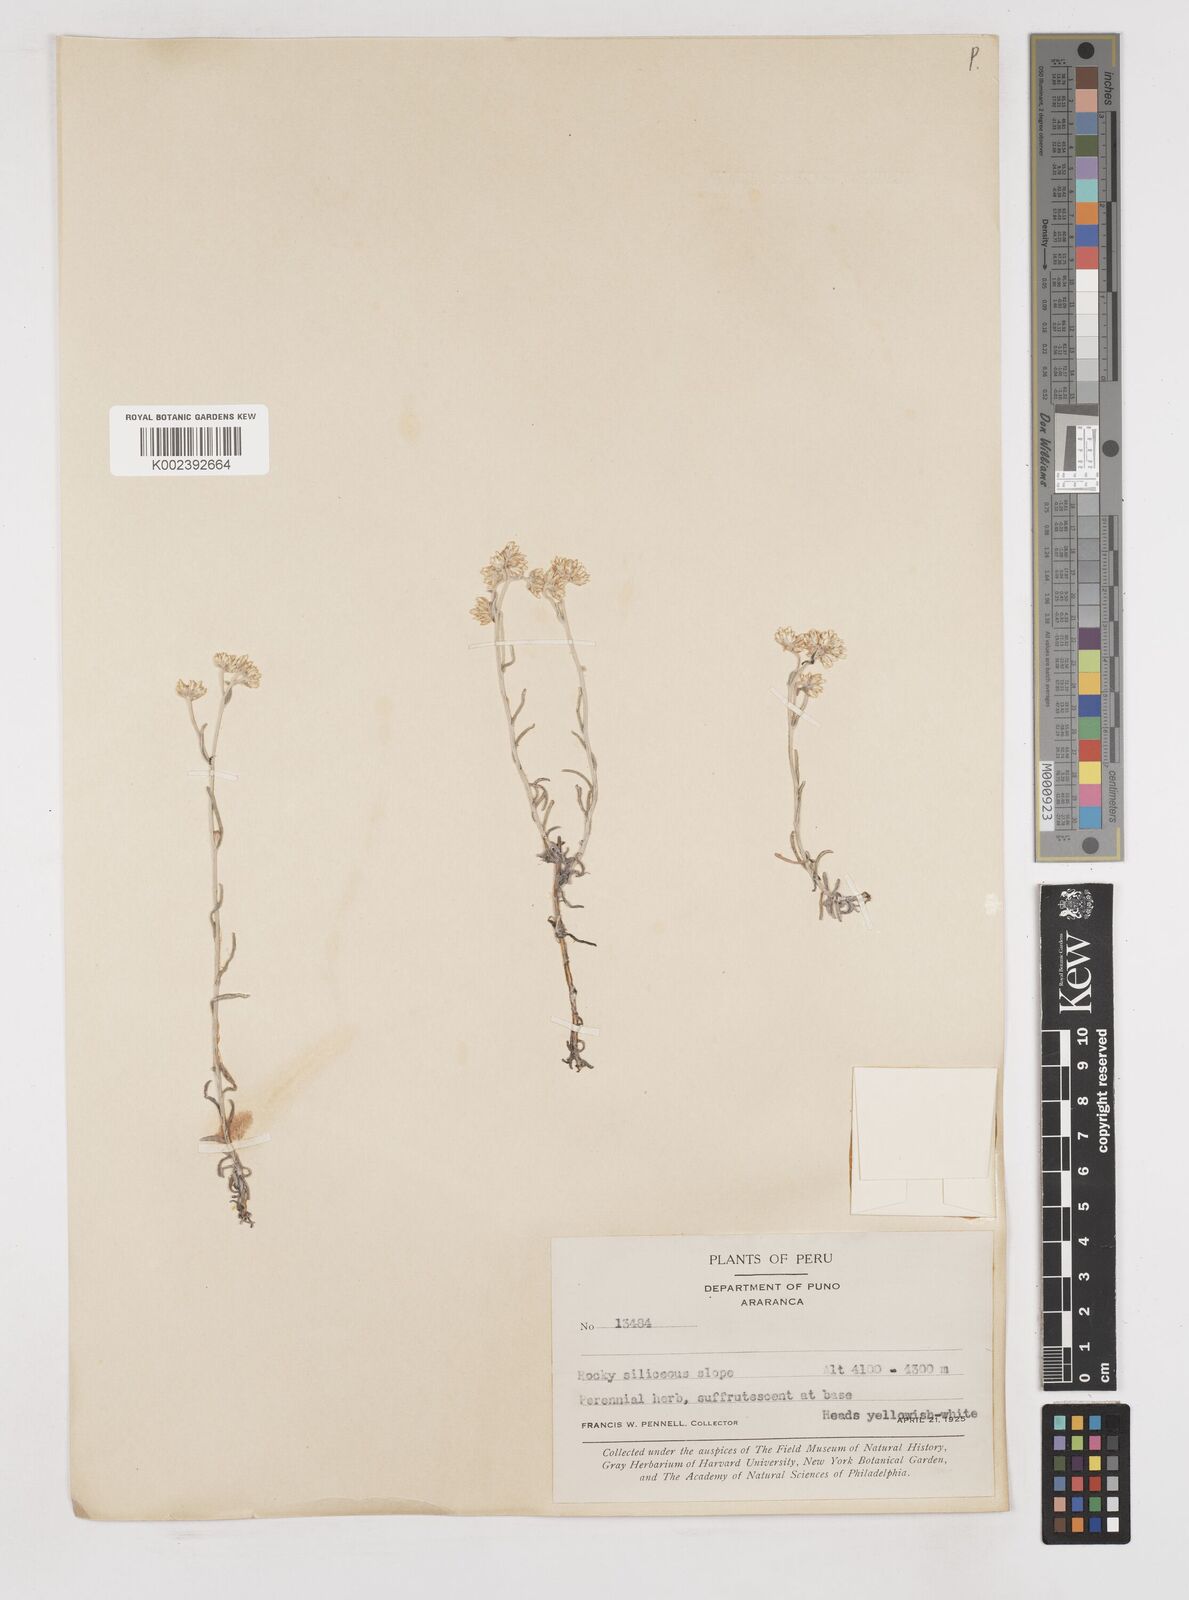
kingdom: Plantae
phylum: Tracheophyta
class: Magnoliopsida
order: Asterales
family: Asteraceae
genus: Gnaphalium
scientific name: Gnaphalium
